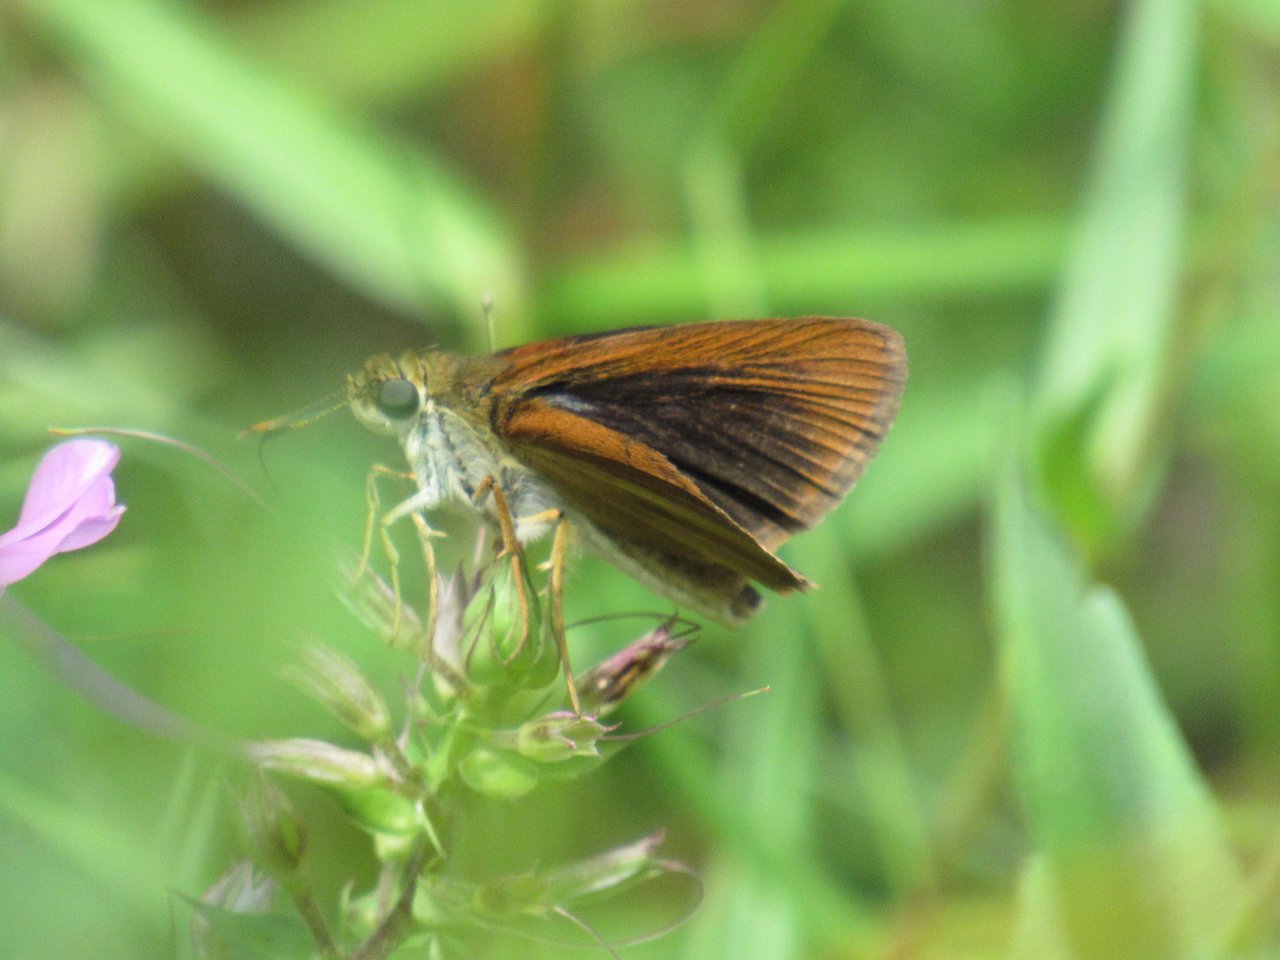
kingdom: Animalia
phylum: Arthropoda
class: Insecta
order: Lepidoptera
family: Hesperiidae
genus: Euphyes
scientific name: Euphyes dukesi
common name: Dukes' Skipper
